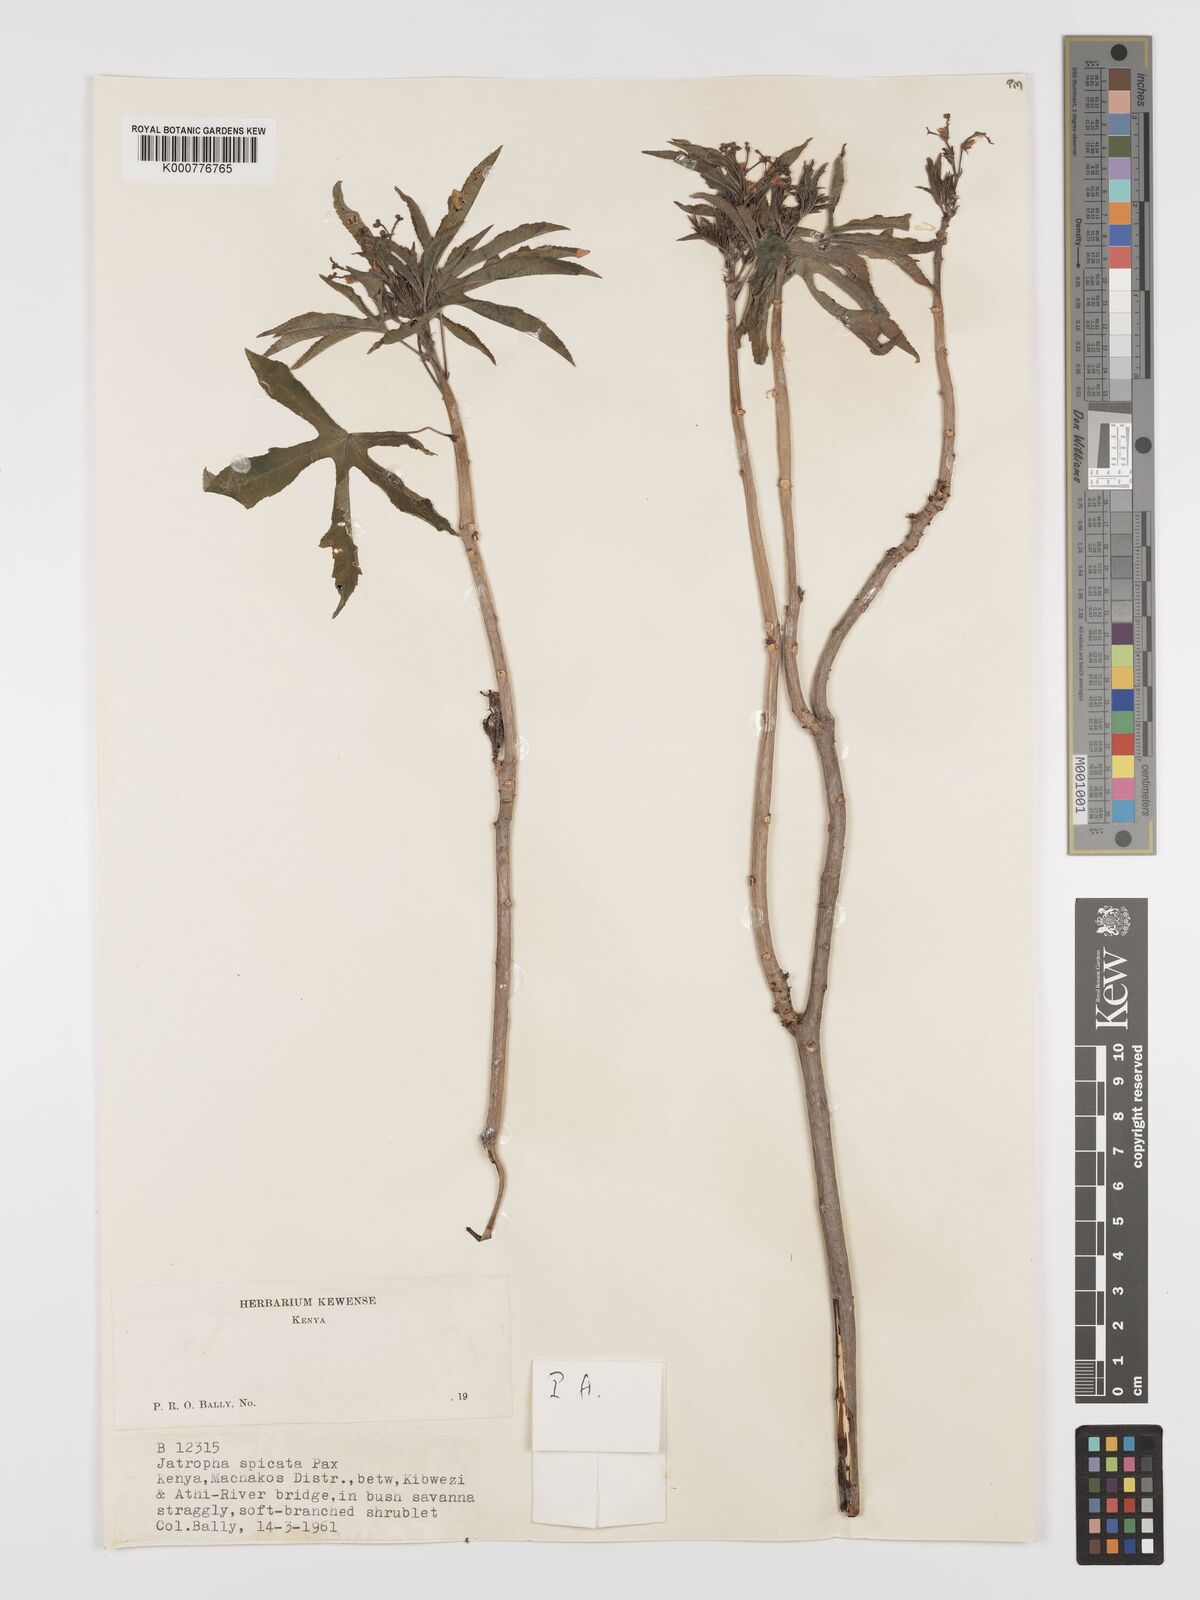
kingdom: Plantae
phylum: Tracheophyta
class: Magnoliopsida
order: Malpighiales
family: Euphorbiaceae
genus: Jatropha
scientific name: Jatropha spicata
